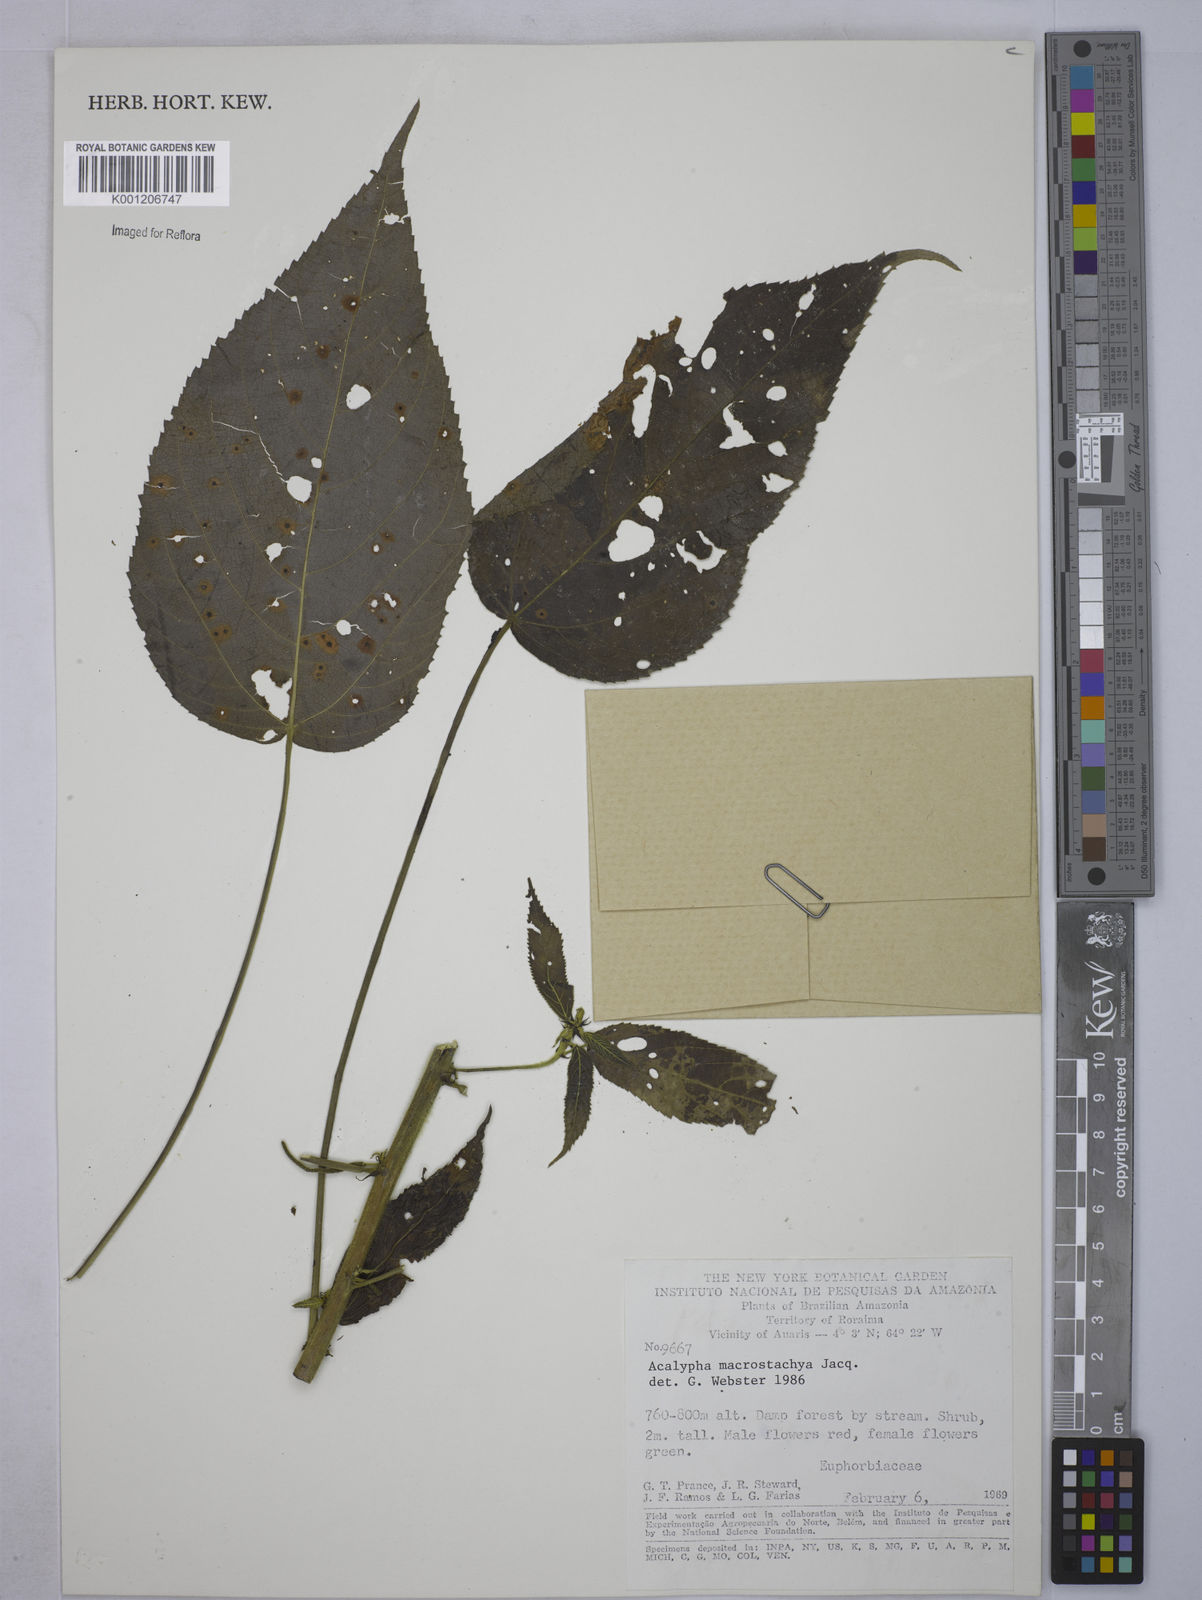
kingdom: Plantae
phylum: Tracheophyta
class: Magnoliopsida
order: Malpighiales
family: Euphorbiaceae
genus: Acalypha
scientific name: Acalypha macrostachya
